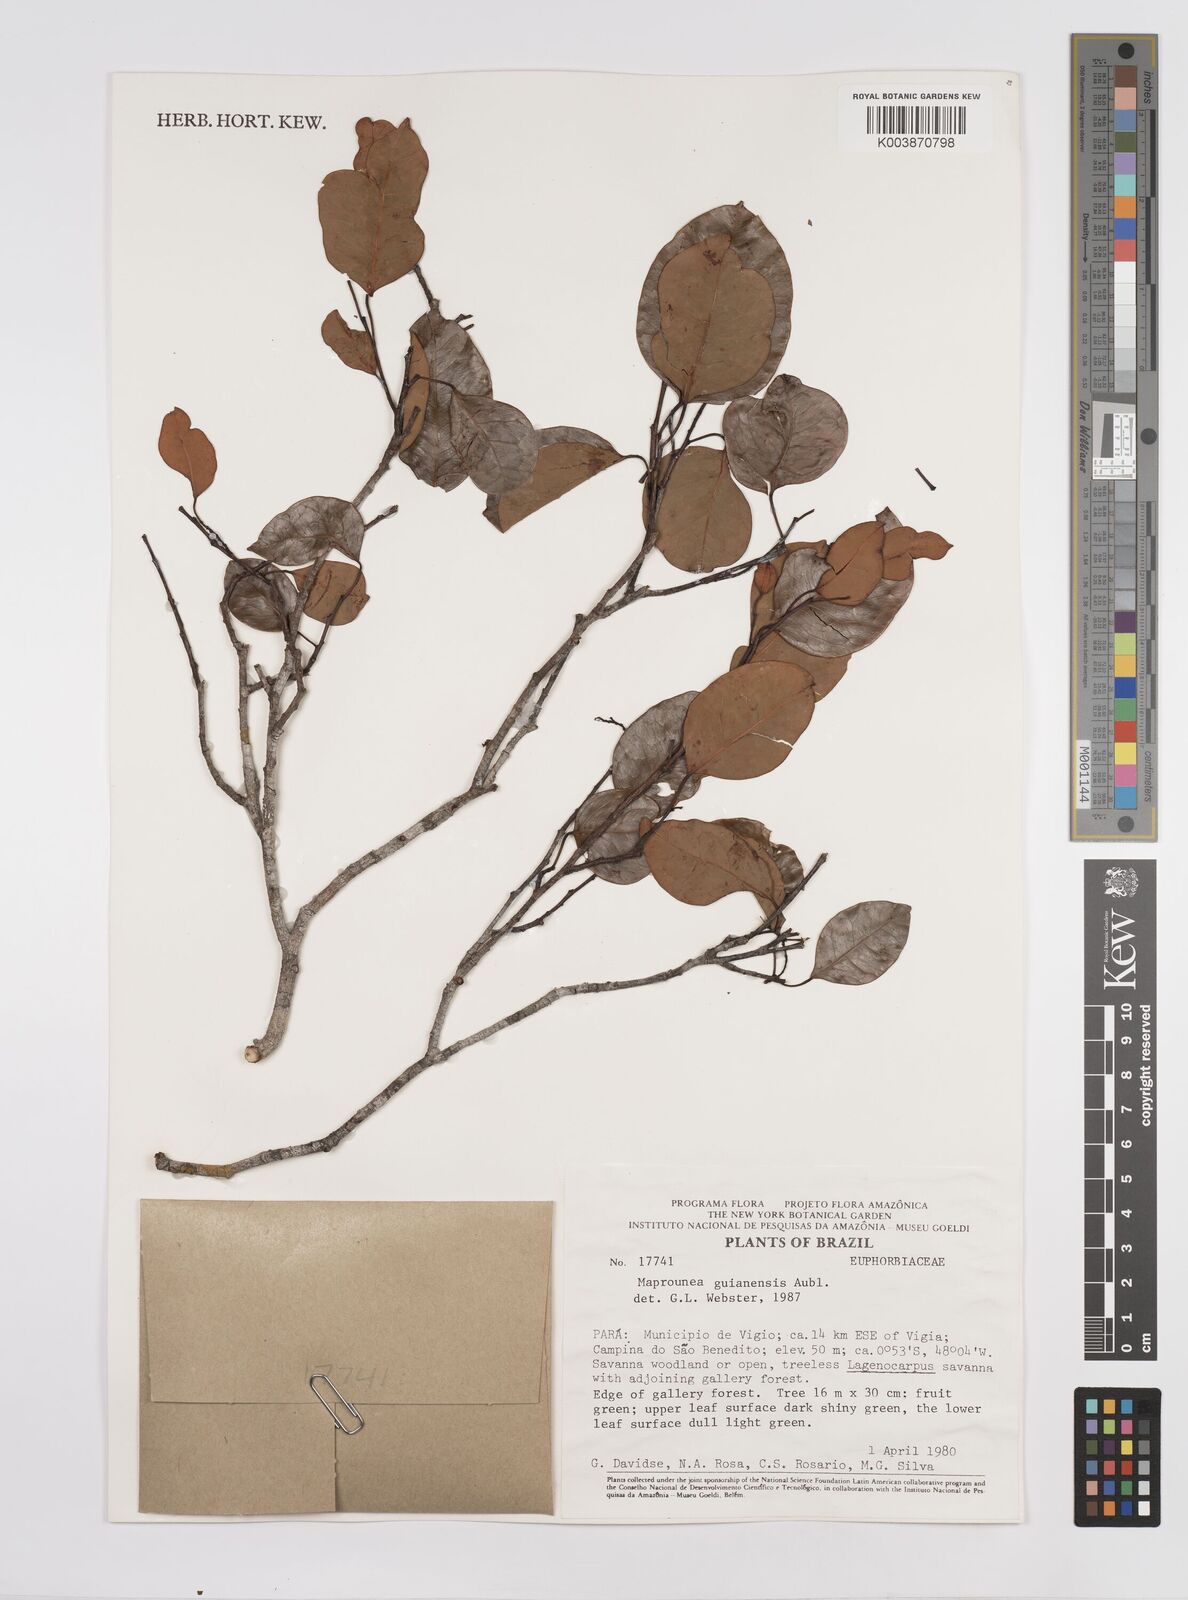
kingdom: Plantae
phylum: Tracheophyta
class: Magnoliopsida
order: Malpighiales
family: Euphorbiaceae
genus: Maprounea
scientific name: Maprounea guianensis
